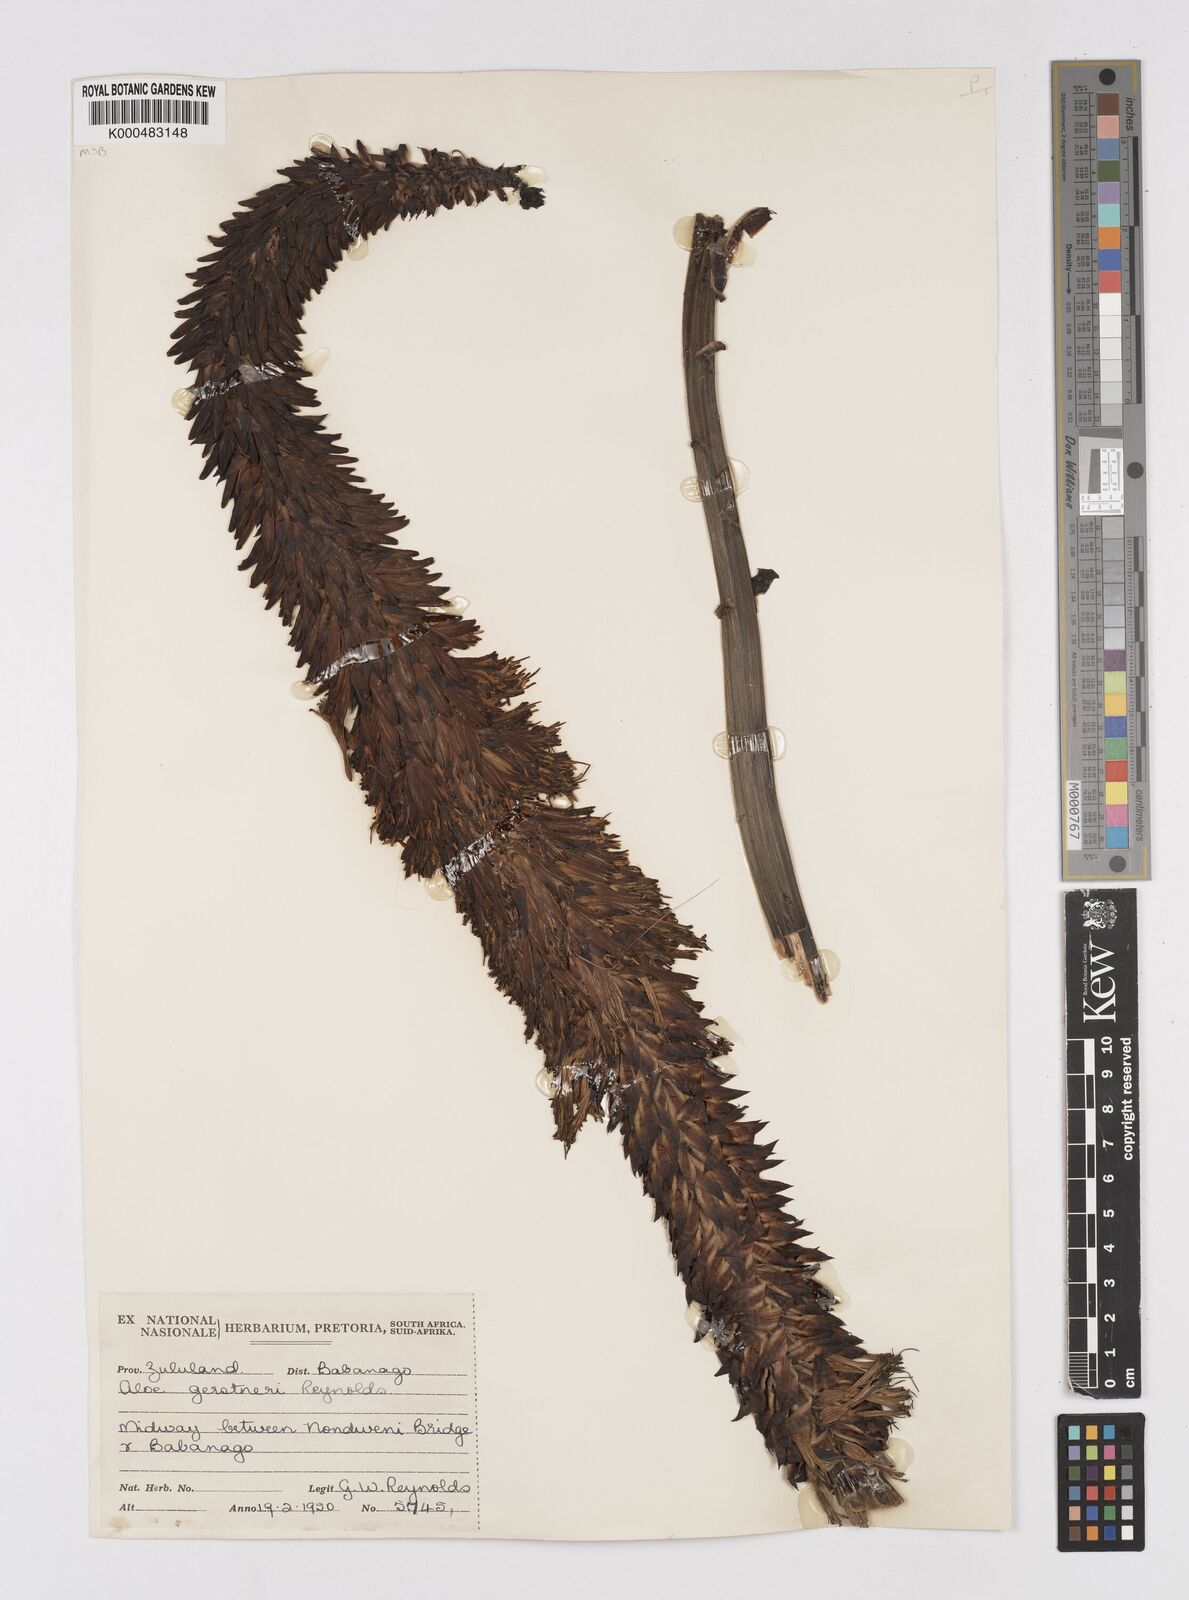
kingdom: Plantae
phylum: Tracheophyta
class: Liliopsida
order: Asparagales
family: Asphodelaceae
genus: Aloe
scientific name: Aloe gerstneri
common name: Gerstner's aloe
